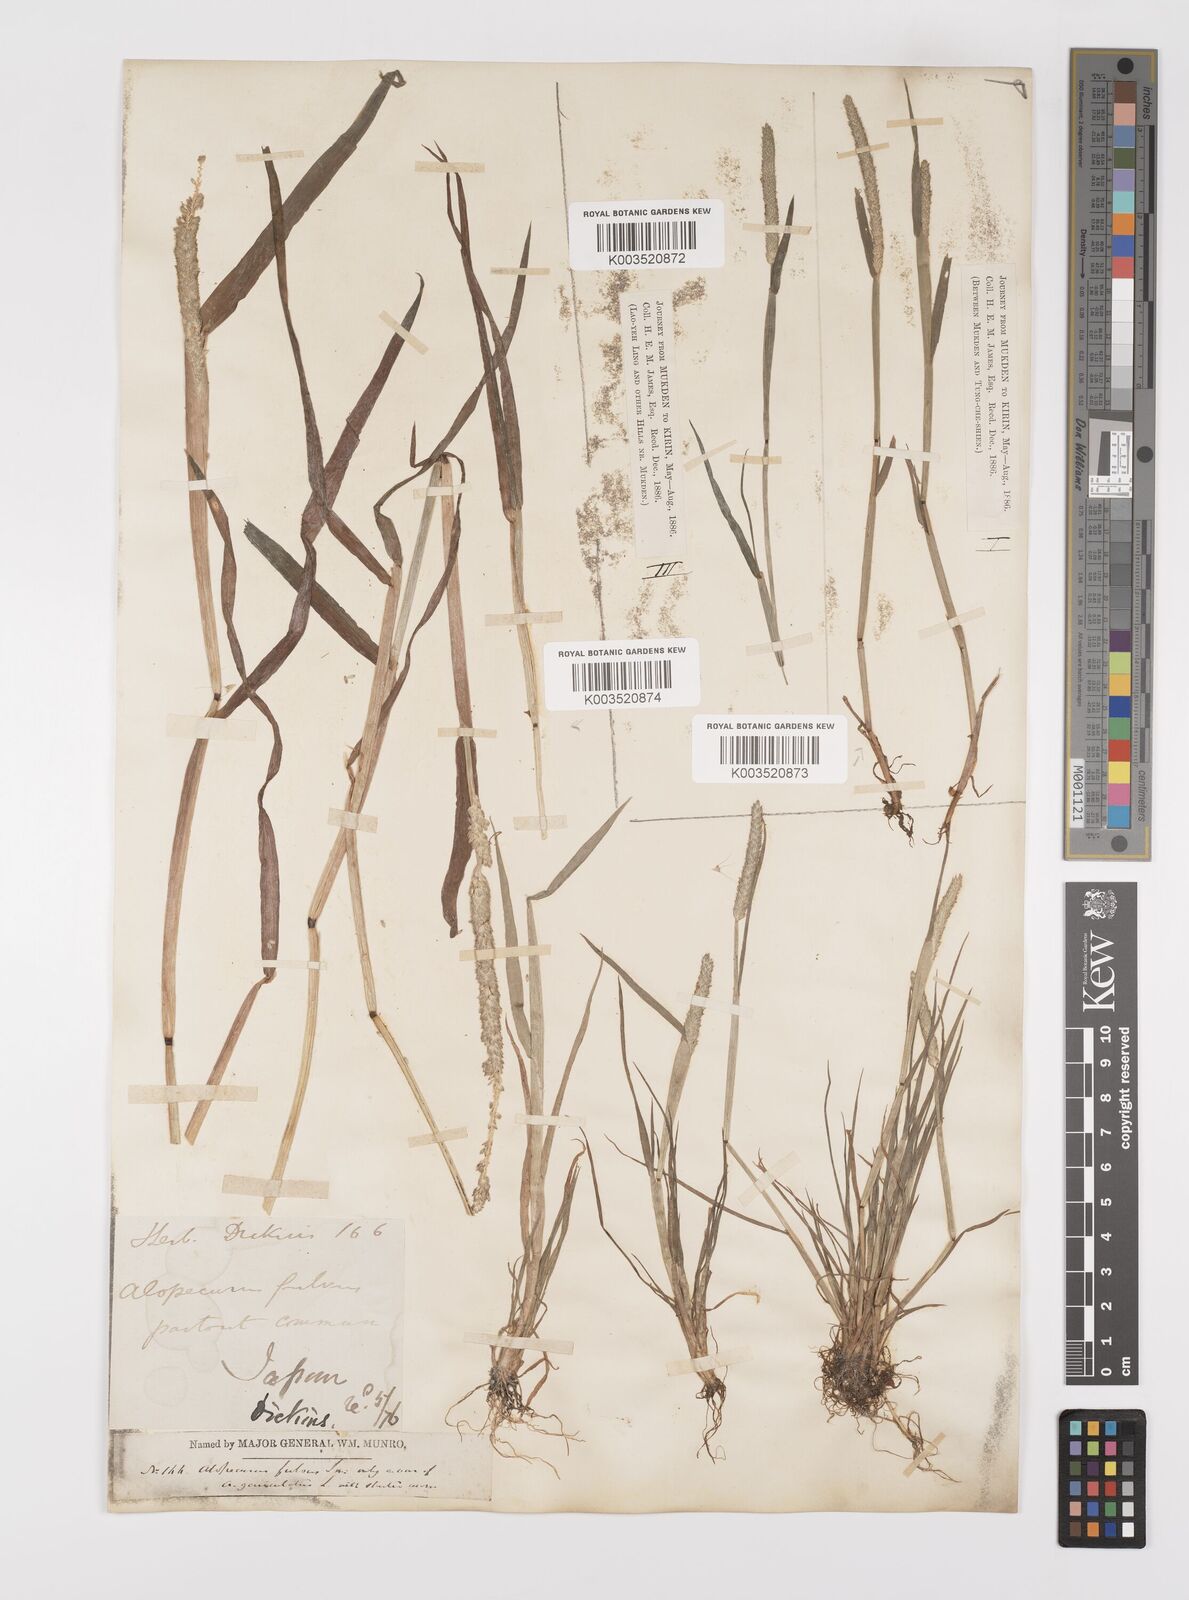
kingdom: Plantae
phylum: Tracheophyta
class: Liliopsida
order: Poales
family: Poaceae
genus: Alopecurus
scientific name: Alopecurus aequalis
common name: Orange foxtail
